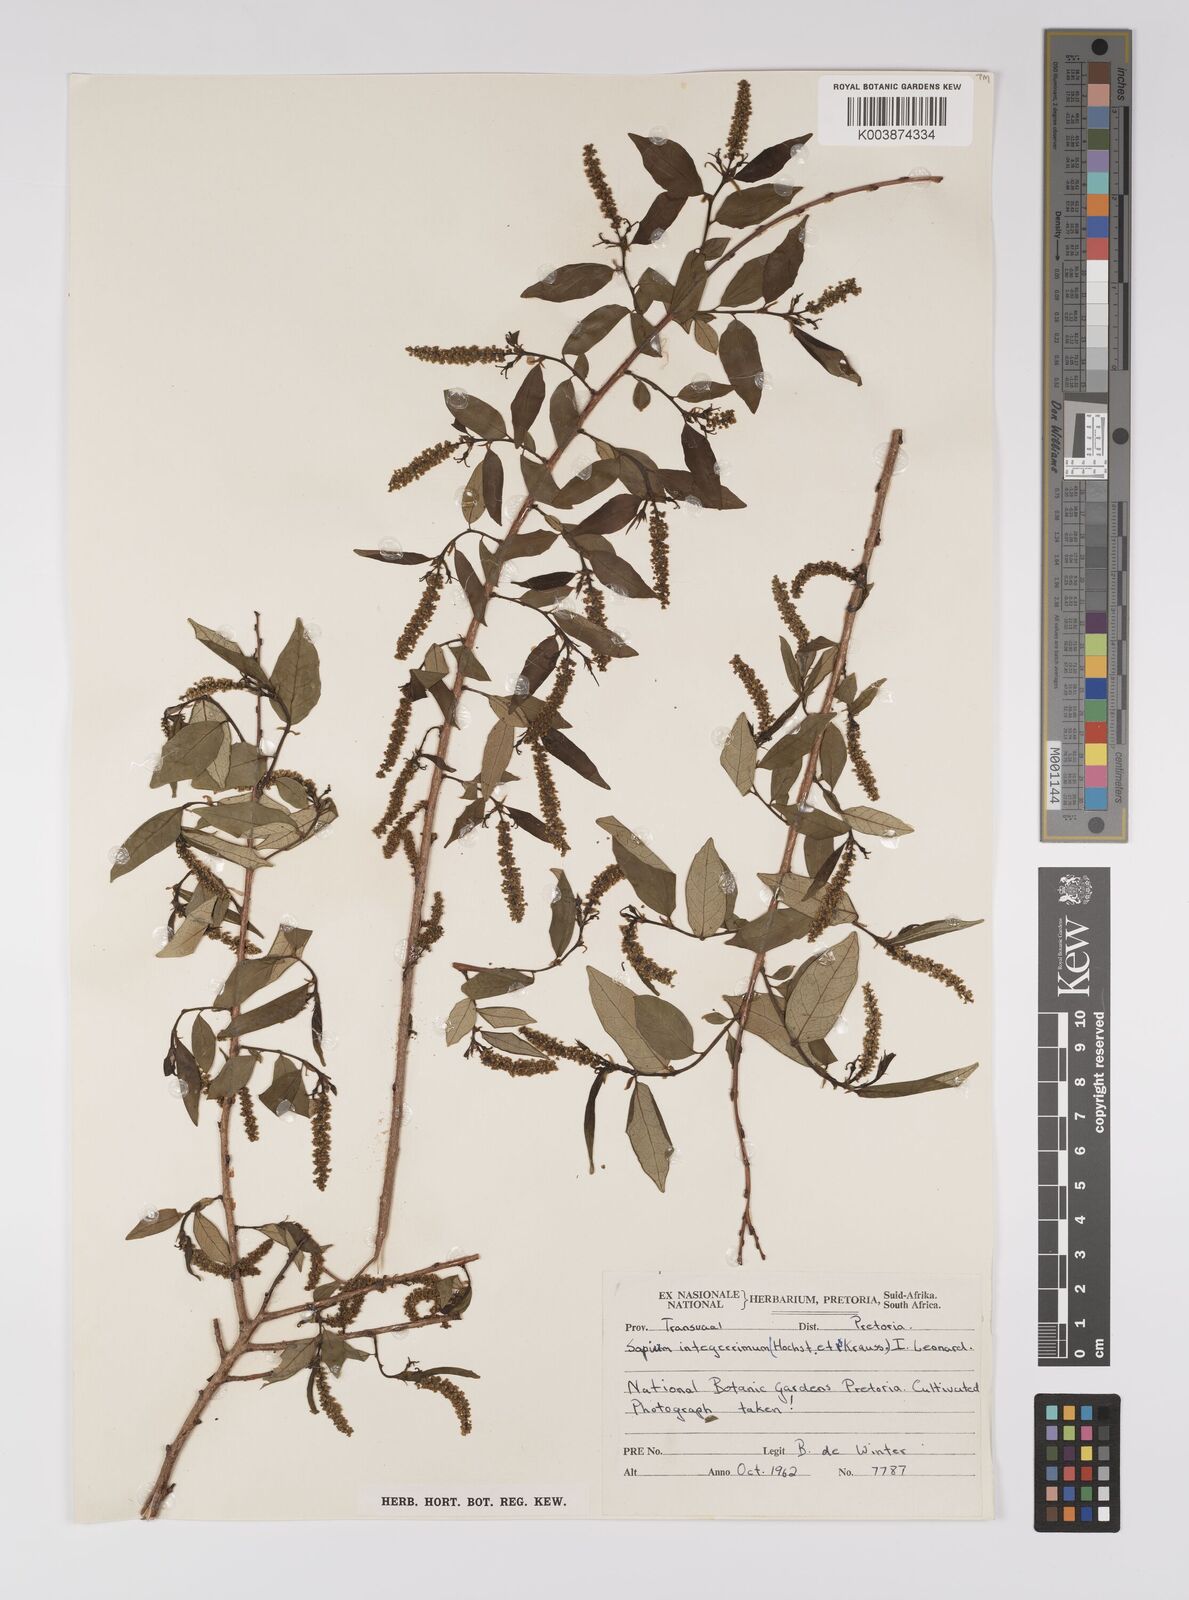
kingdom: Plantae
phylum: Tracheophyta
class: Magnoliopsida
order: Malpighiales
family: Euphorbiaceae
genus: Sclerocroton
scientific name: Sclerocroton integerrimus
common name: Duiker berry
